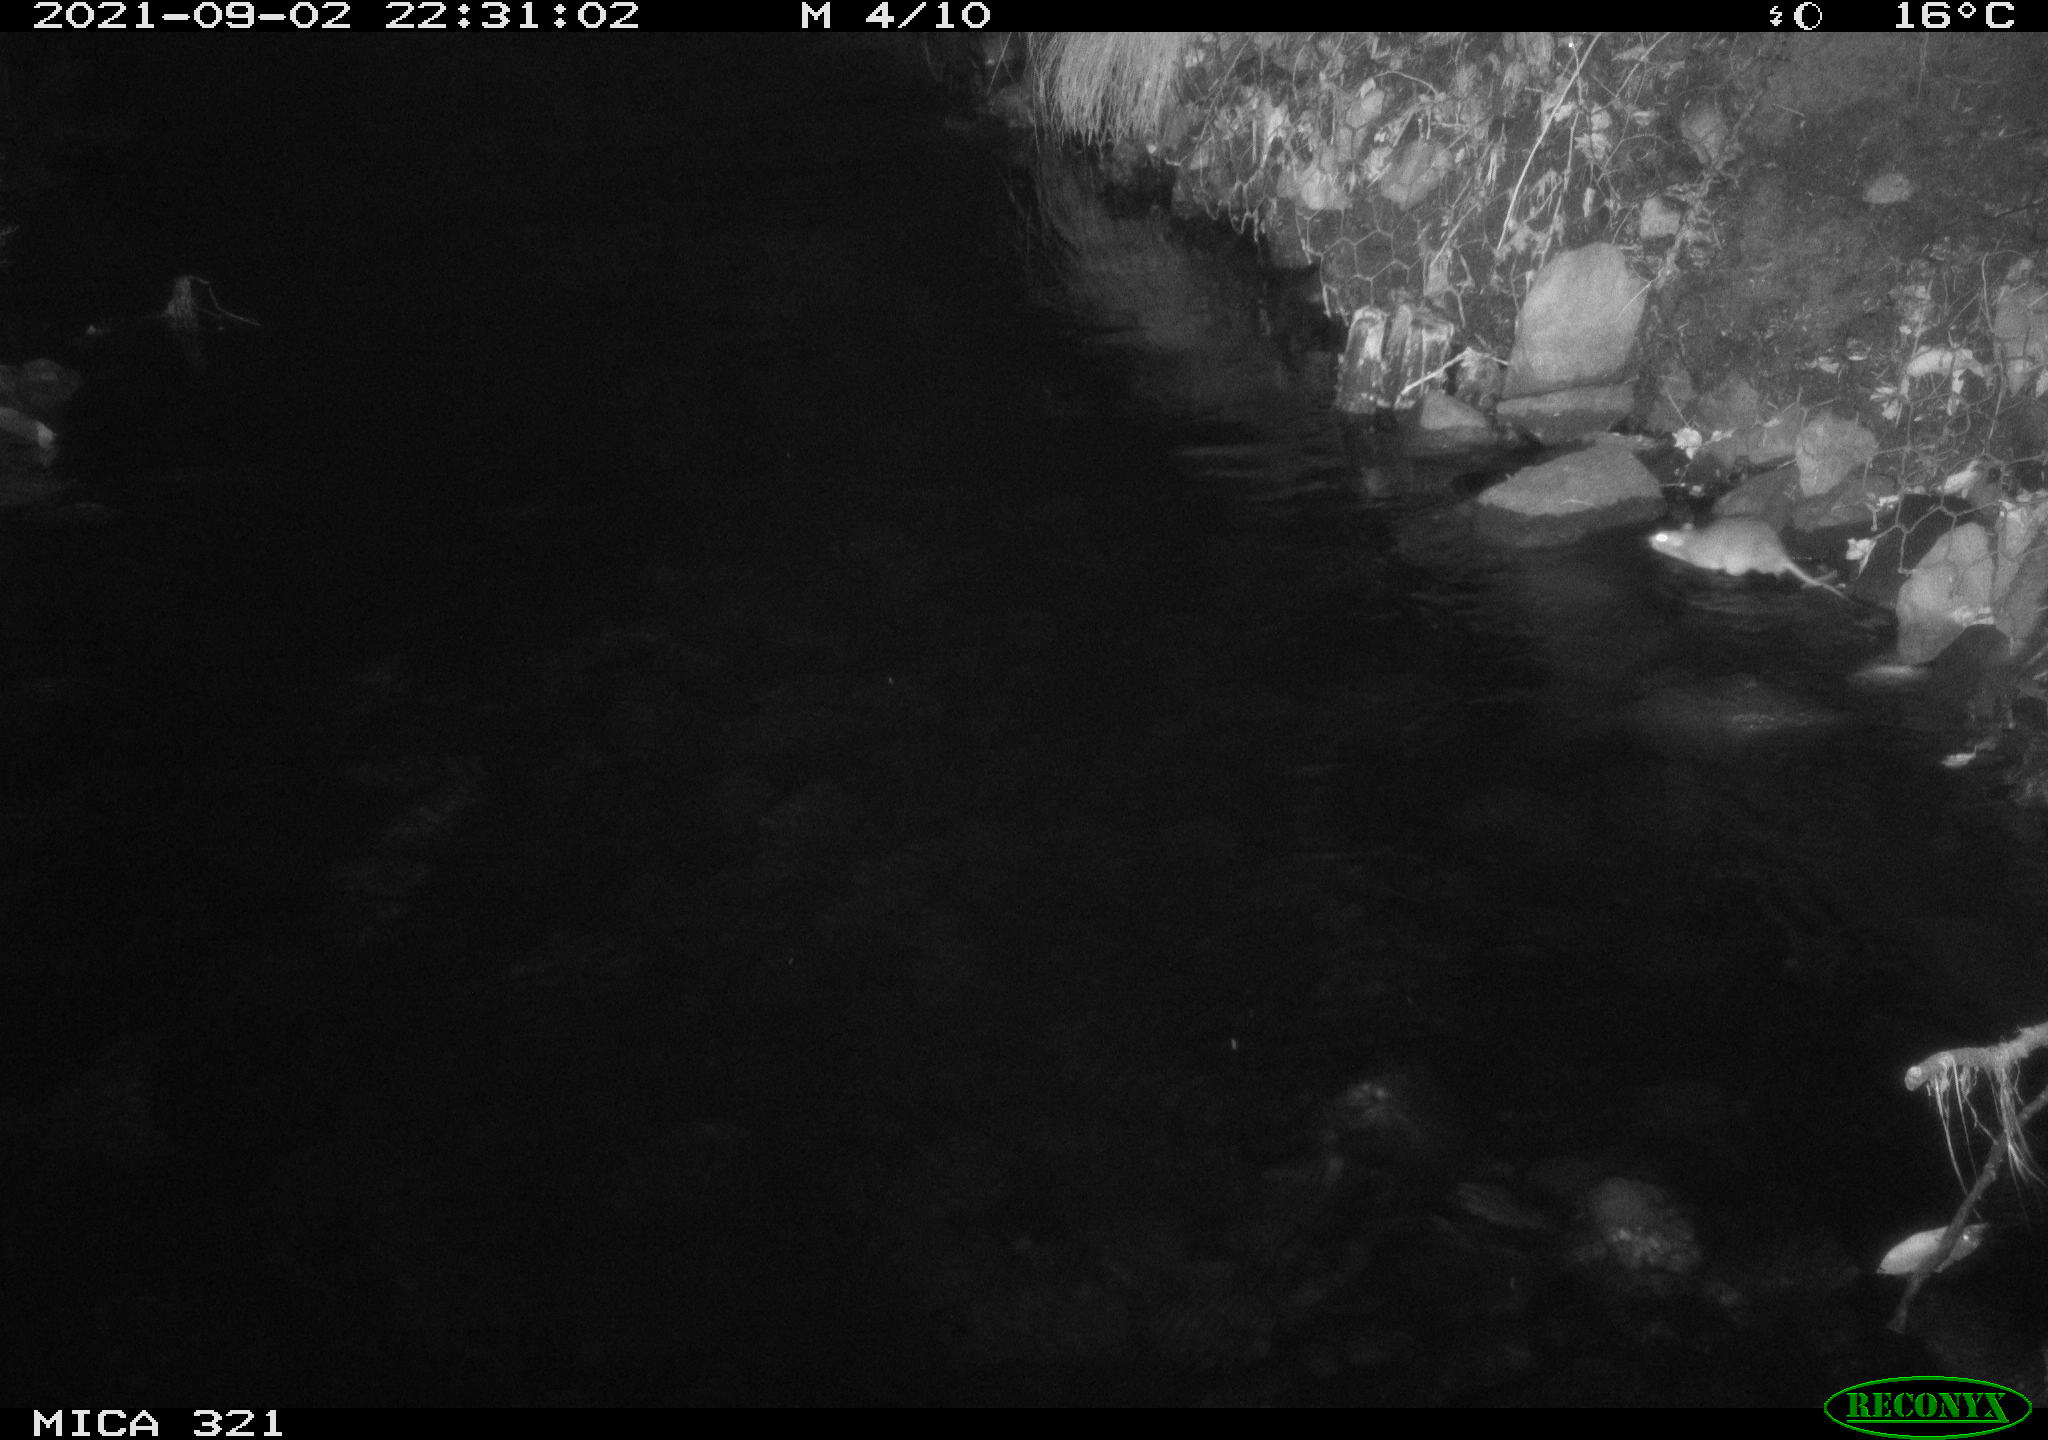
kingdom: Animalia
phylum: Chordata
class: Mammalia
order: Rodentia
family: Muridae
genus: Rattus
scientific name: Rattus norvegicus
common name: Brown rat
